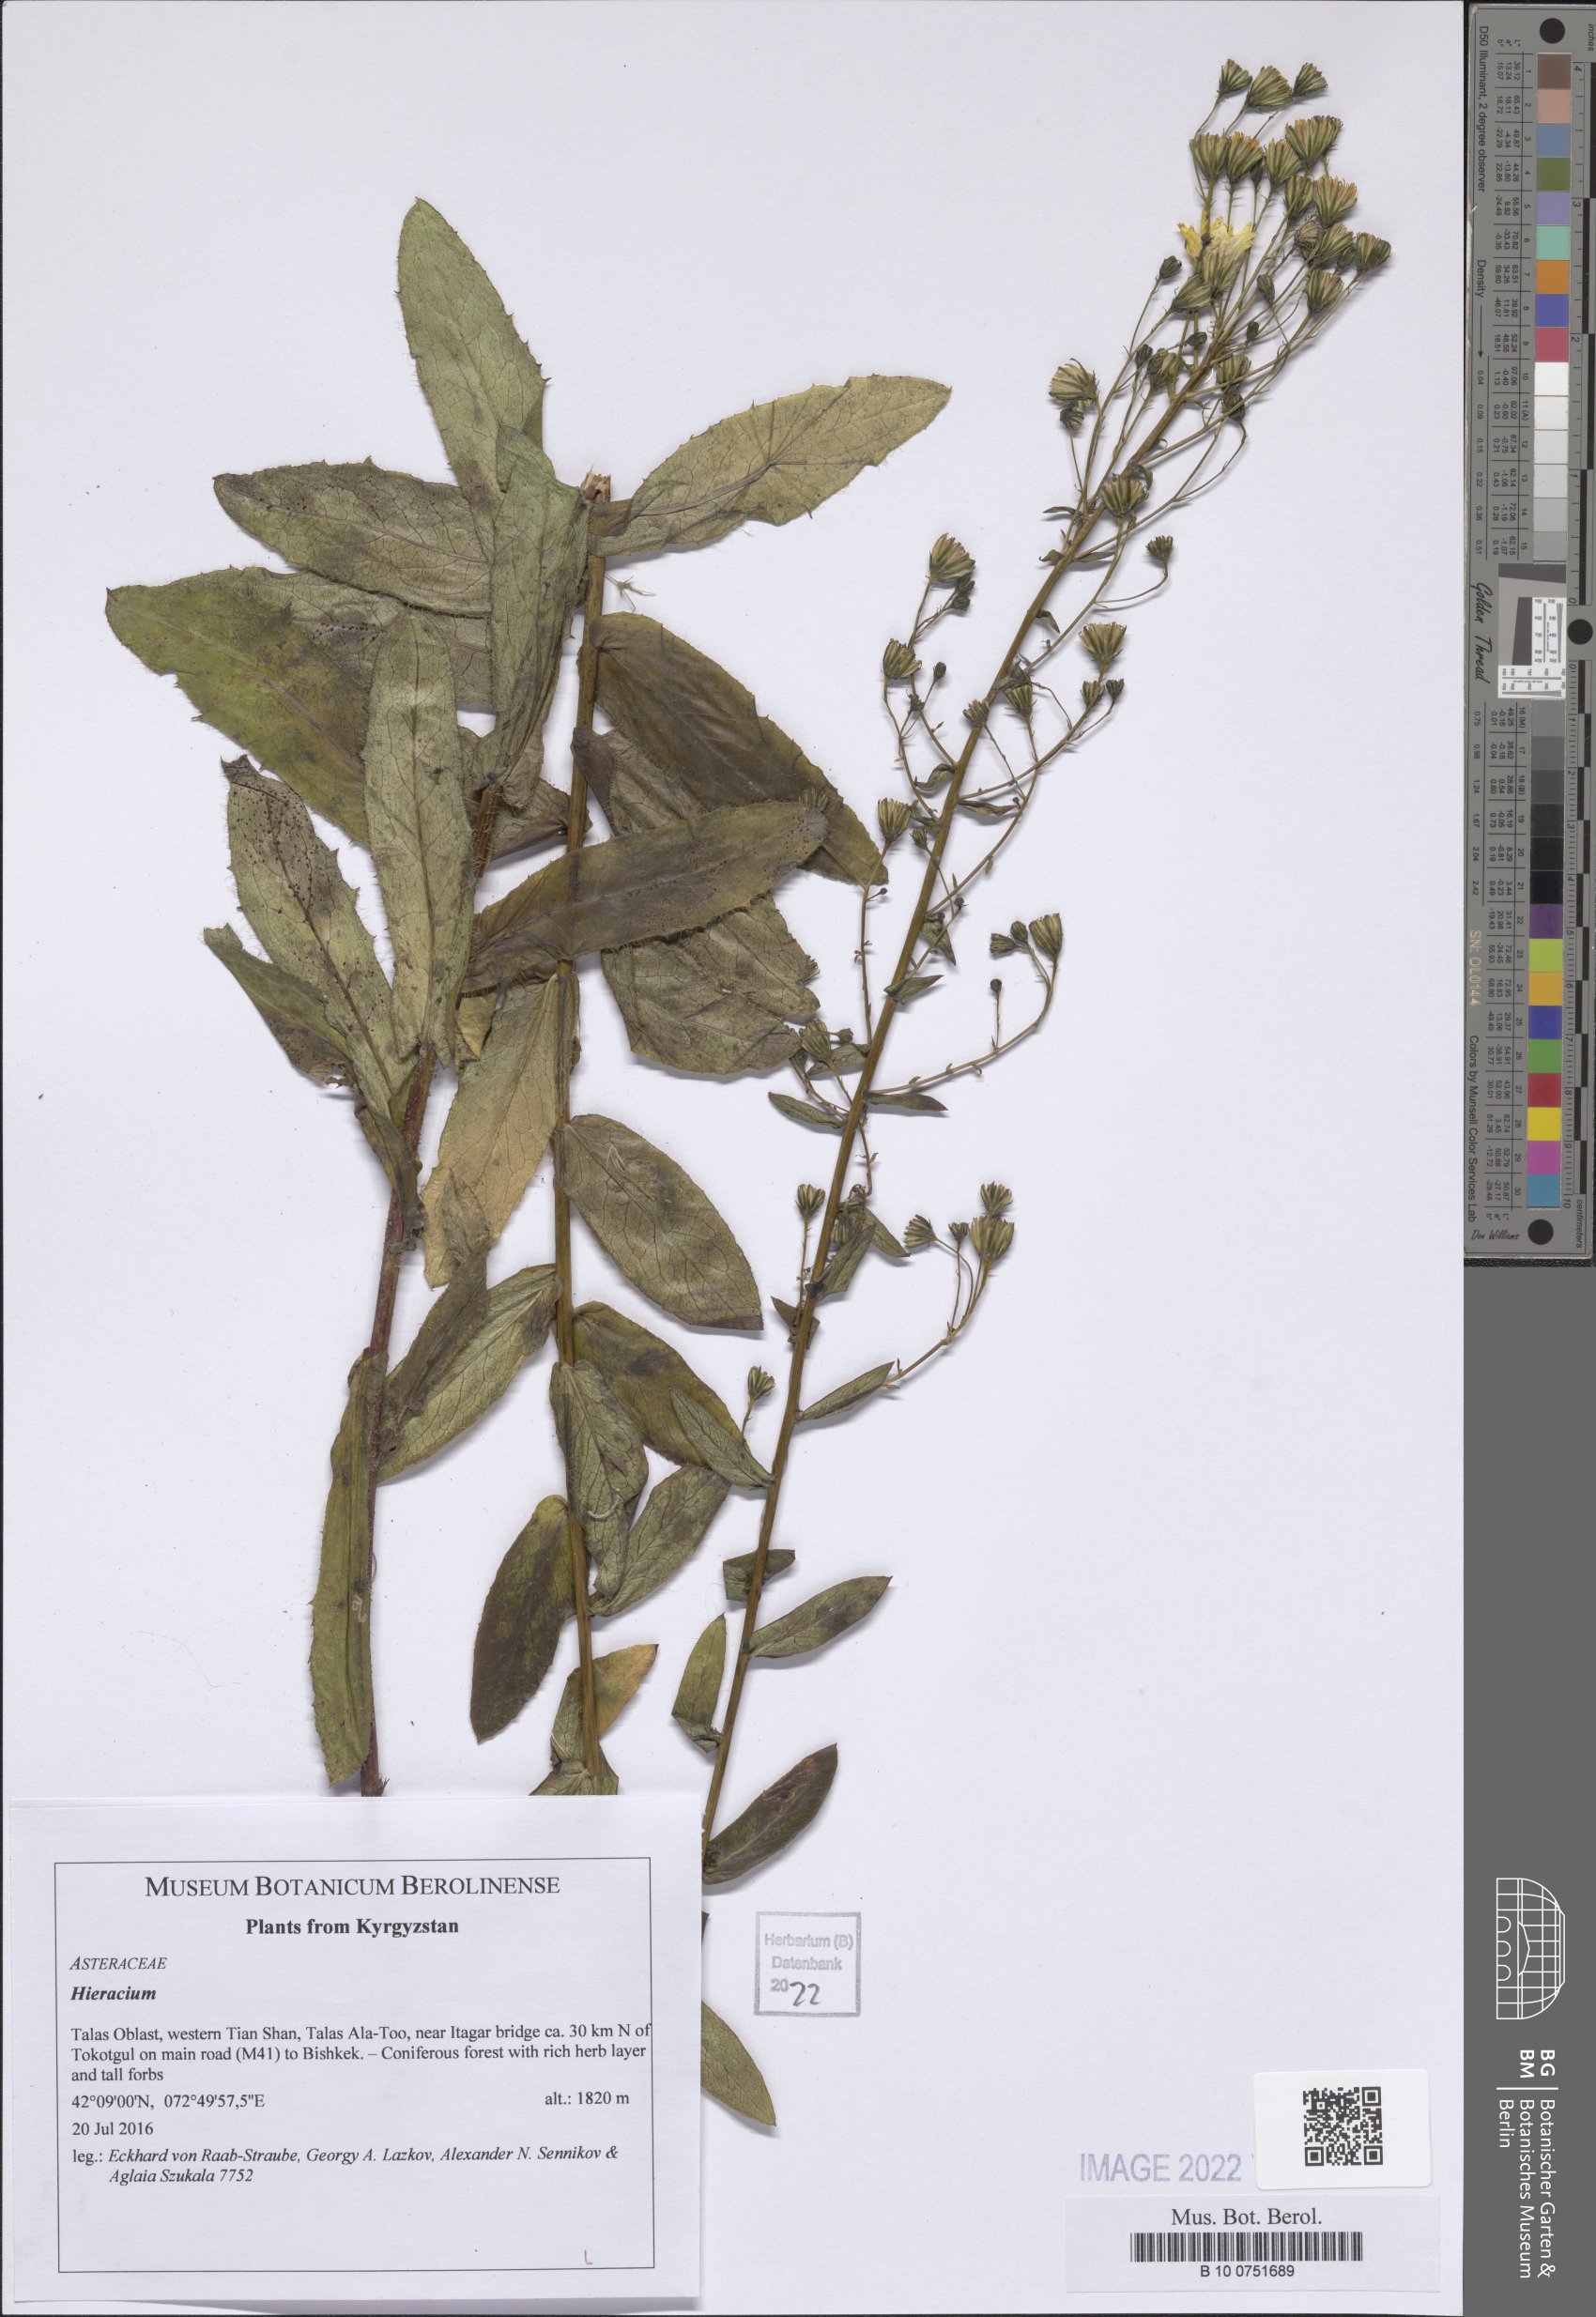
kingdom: Plantae
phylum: Tracheophyta
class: Magnoliopsida
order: Asterales
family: Asteraceae
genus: Hieracium
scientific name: Hieracium
